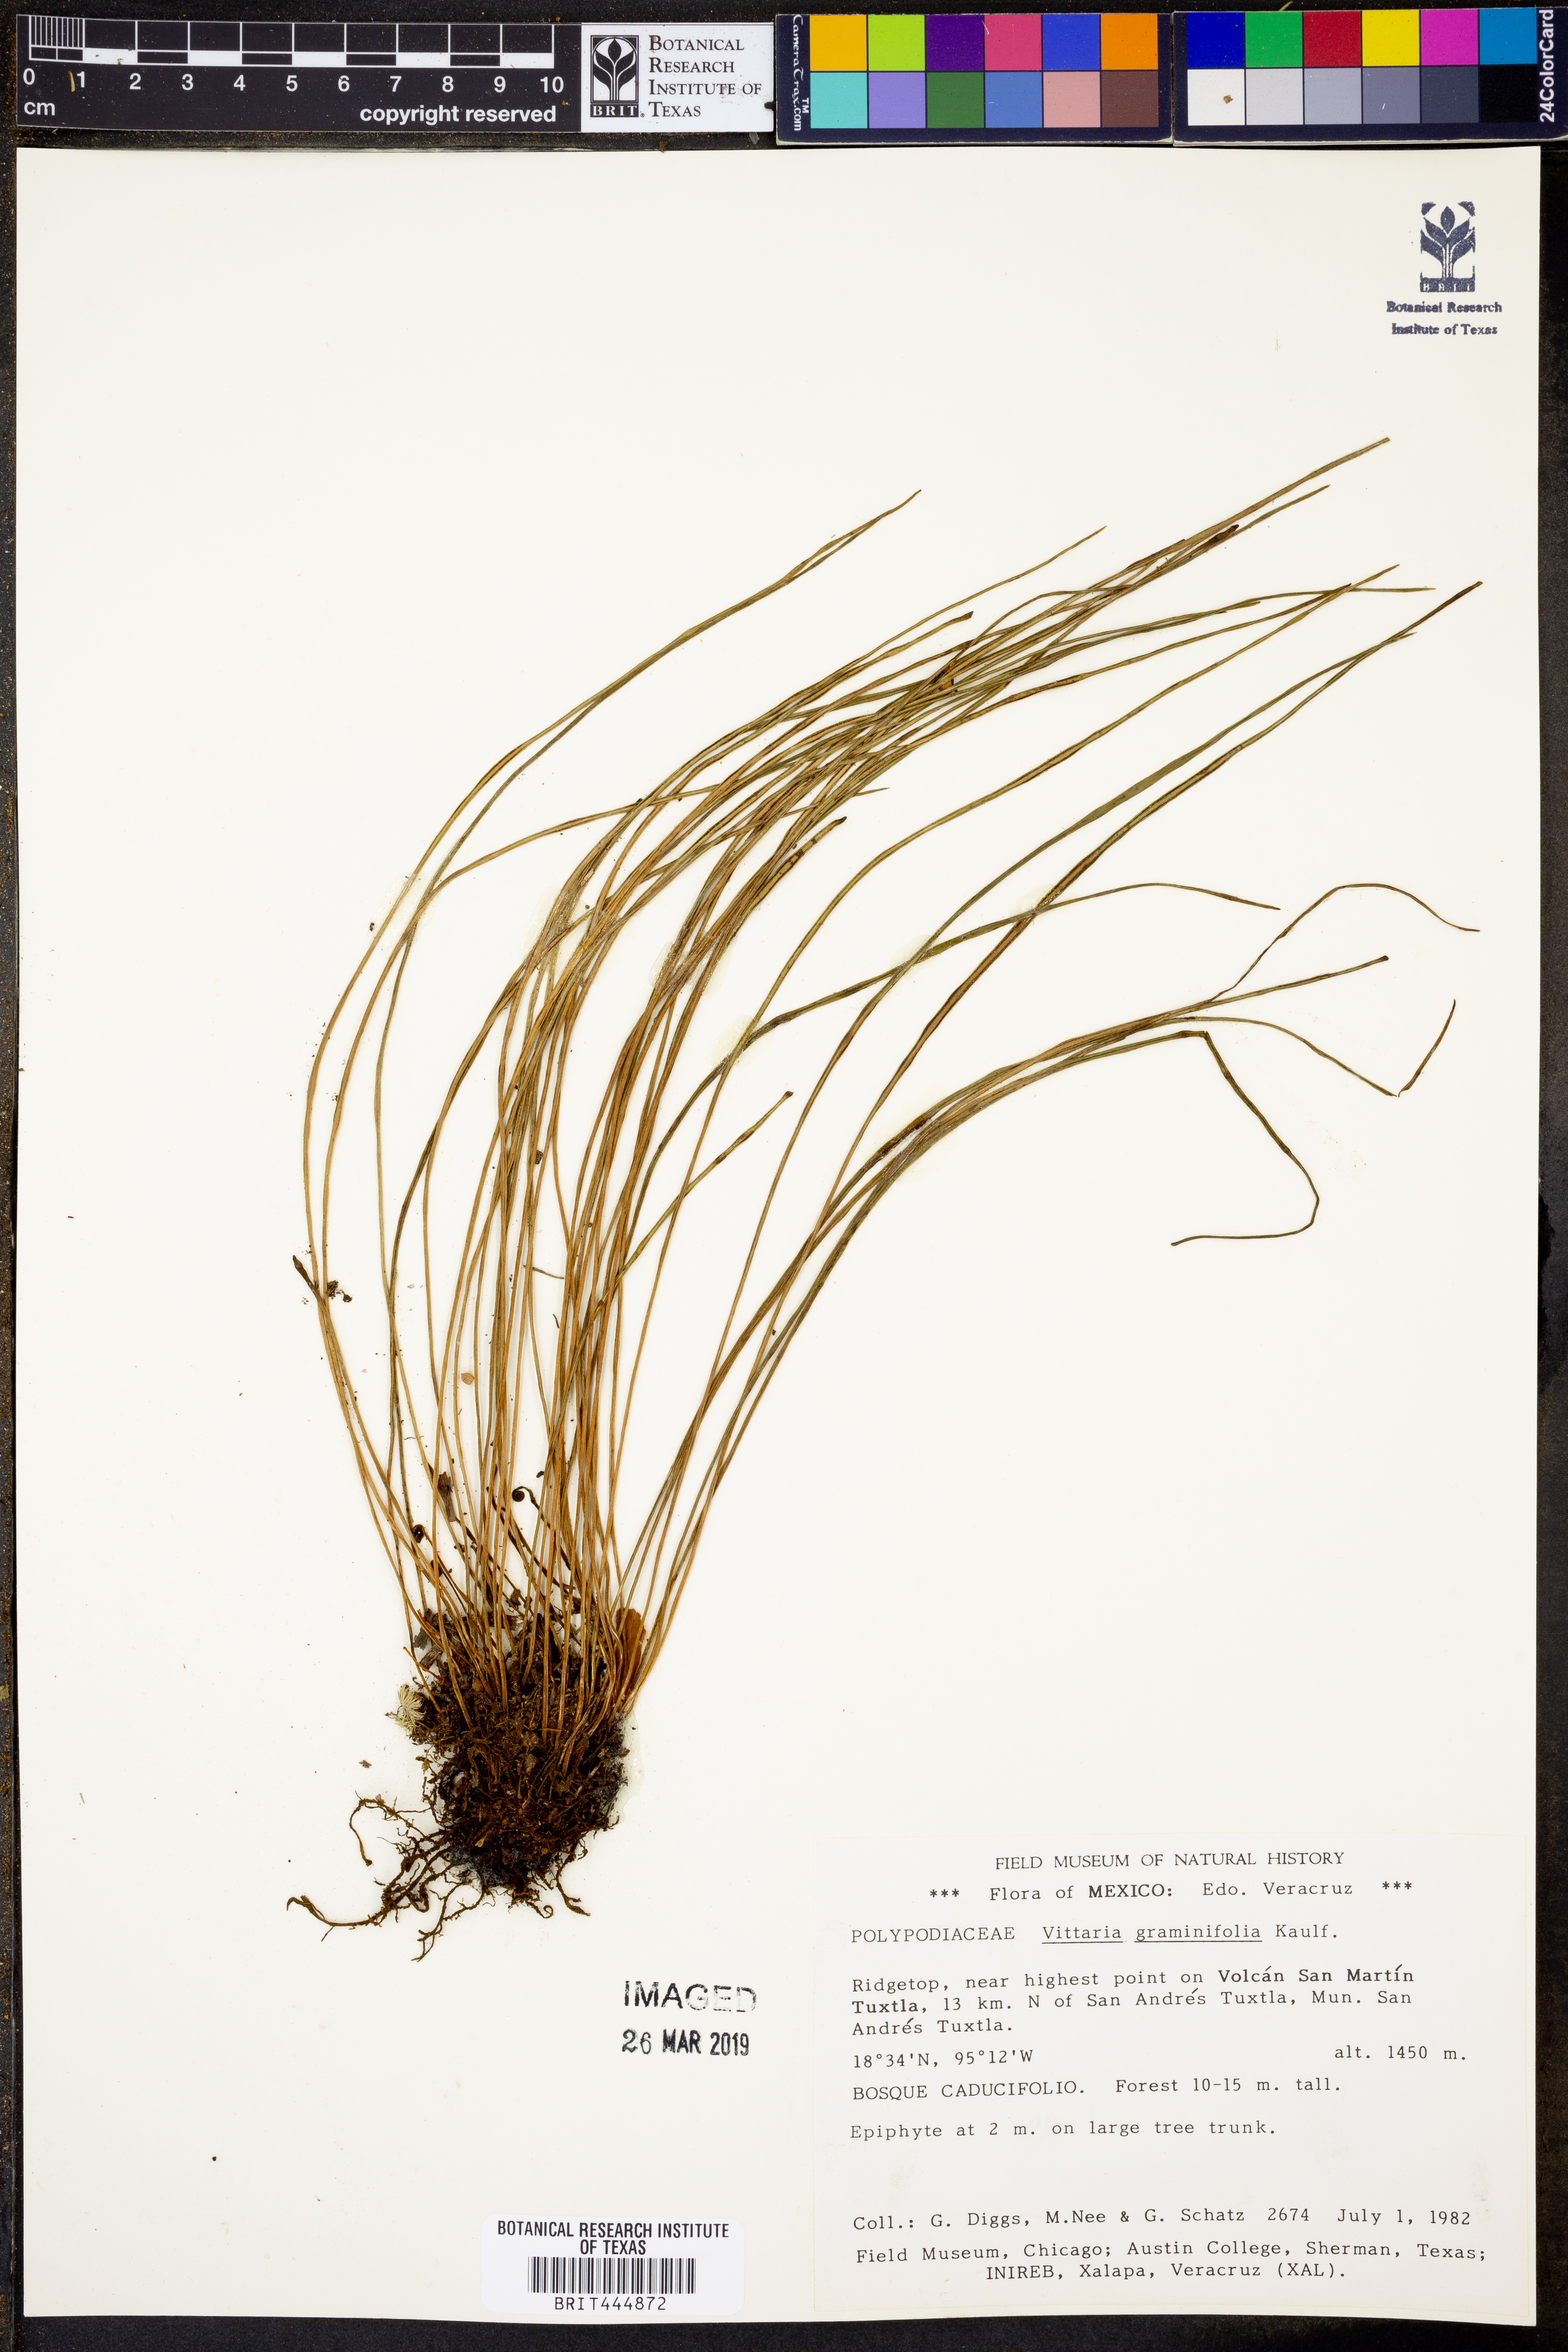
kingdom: Plantae
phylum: Tracheophyta
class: Polypodiopsida
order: Polypodiales
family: Pteridaceae
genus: Vittaria
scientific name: Vittaria graminifolia
